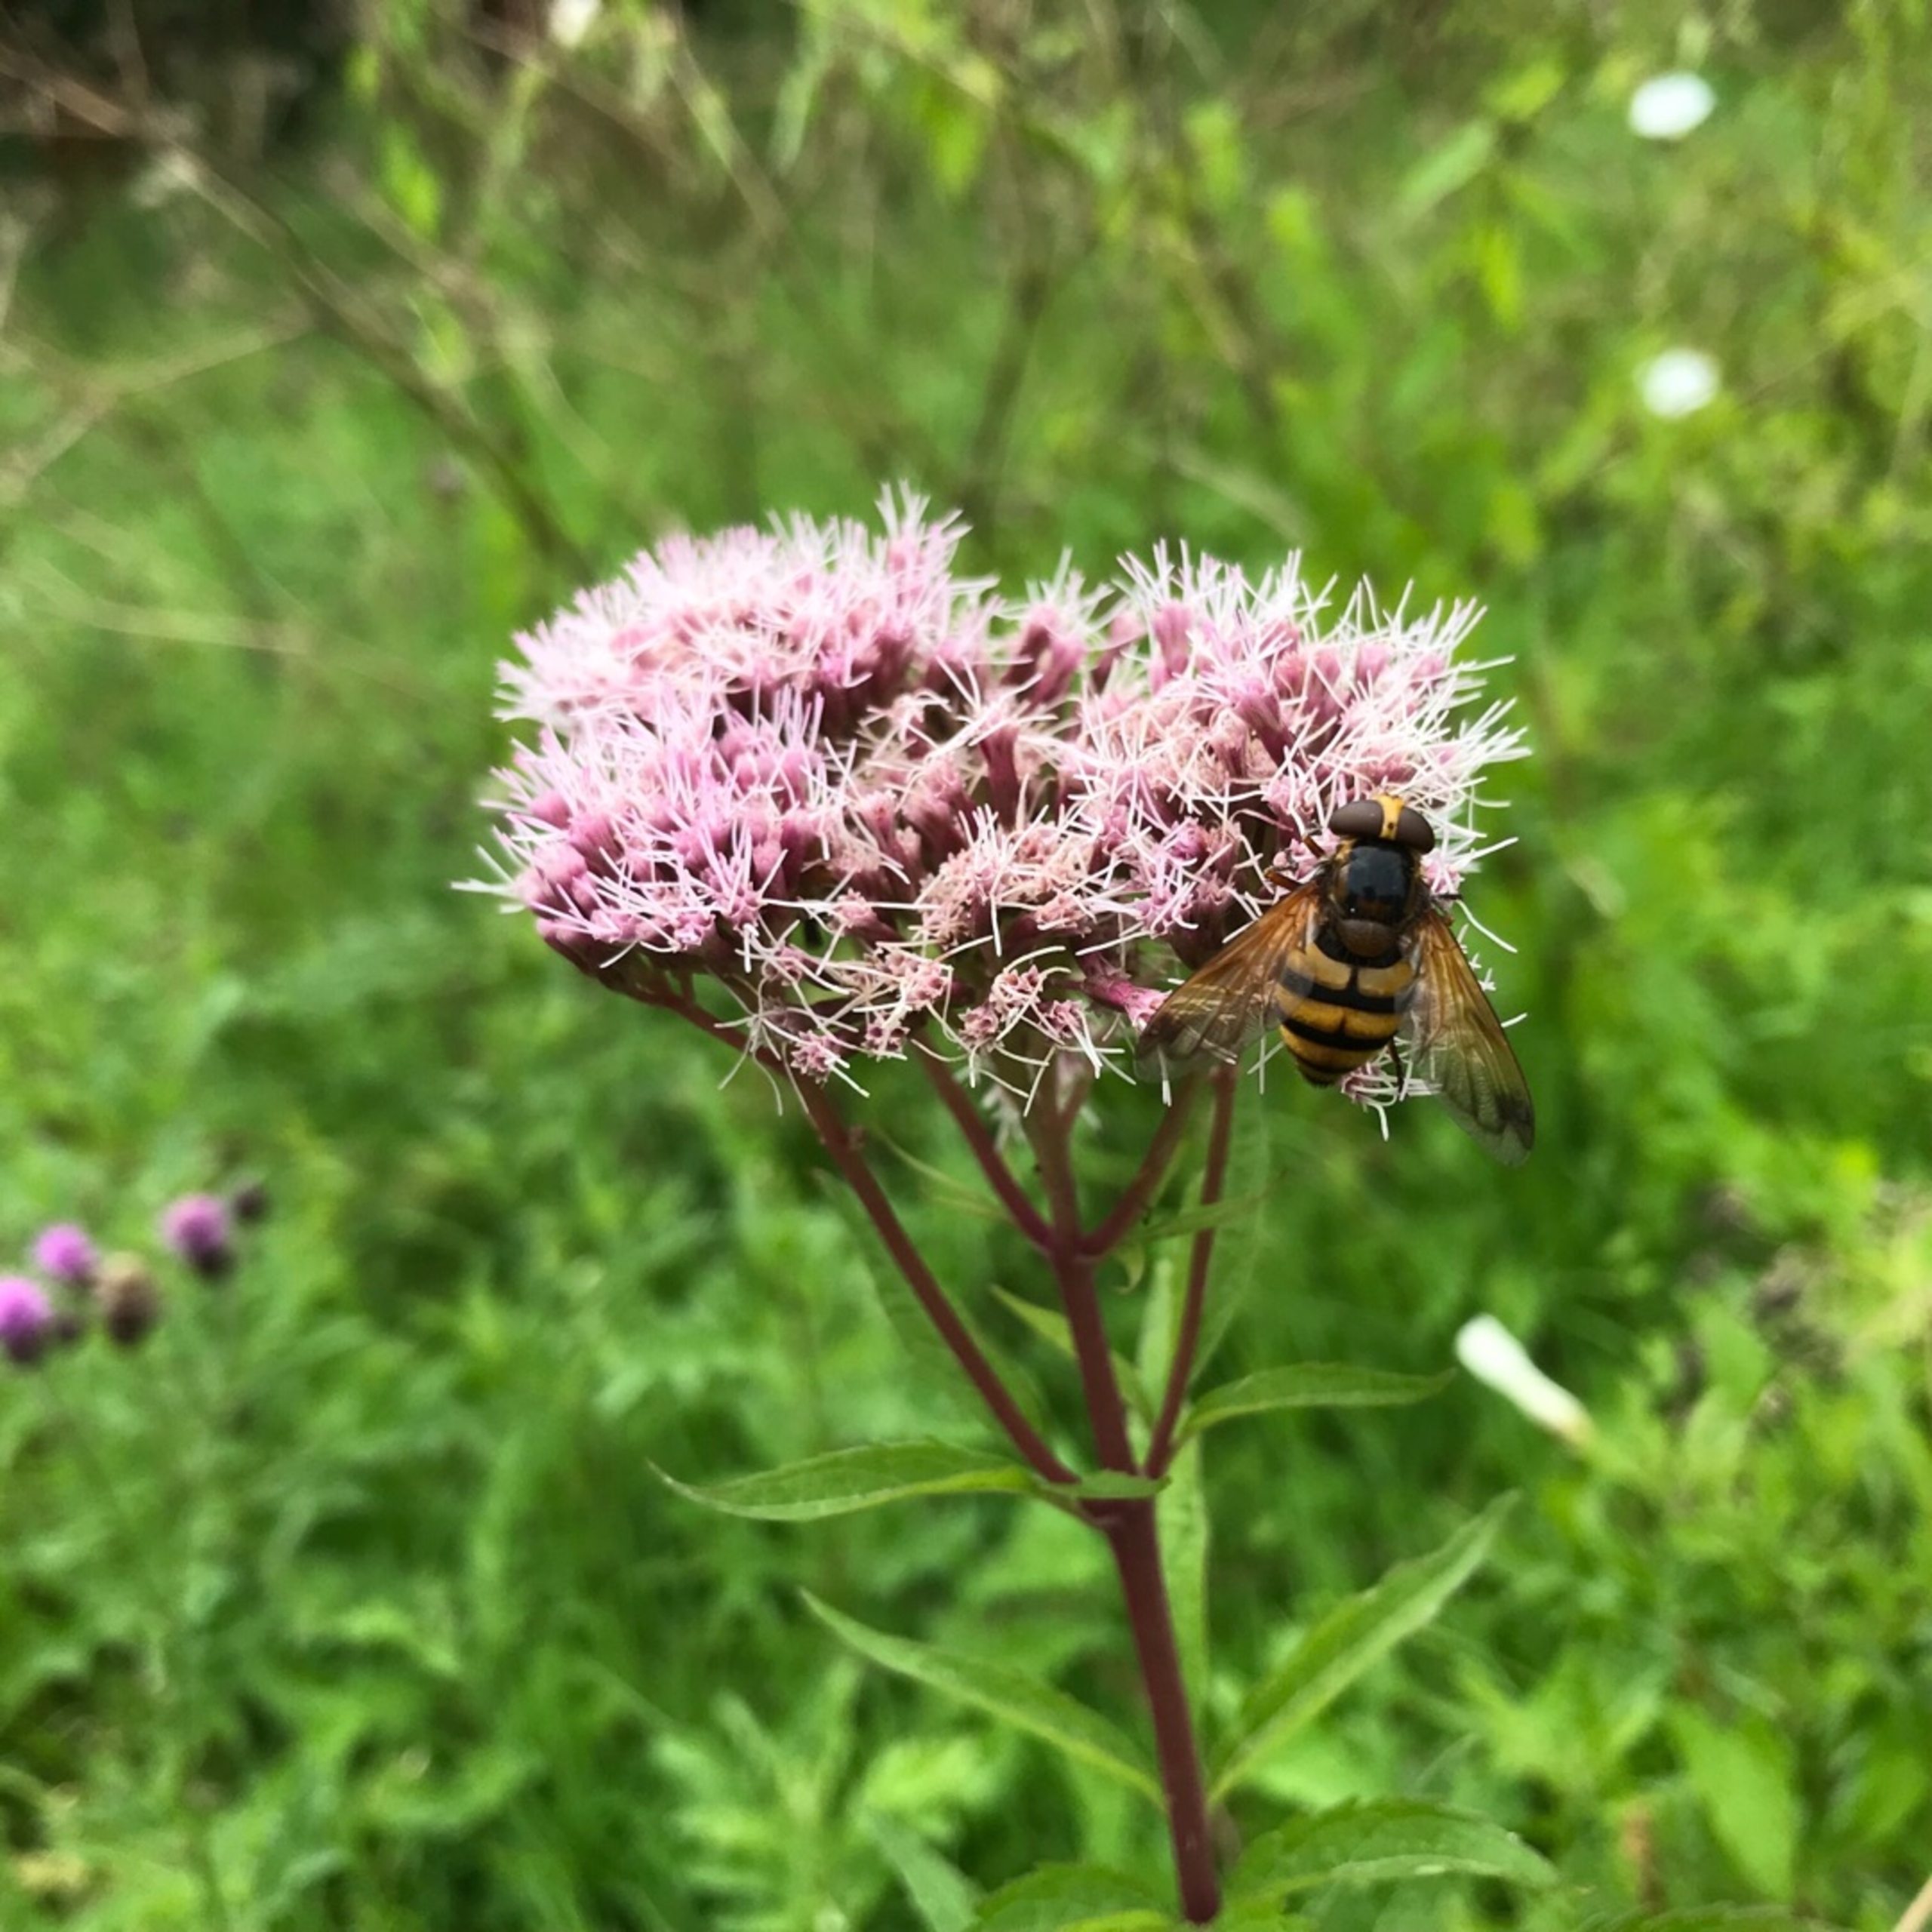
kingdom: Animalia
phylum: Arthropoda
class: Insecta
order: Diptera
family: Syrphidae
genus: Volucella
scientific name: Volucella inanis
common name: Gul humlesvirreflue
